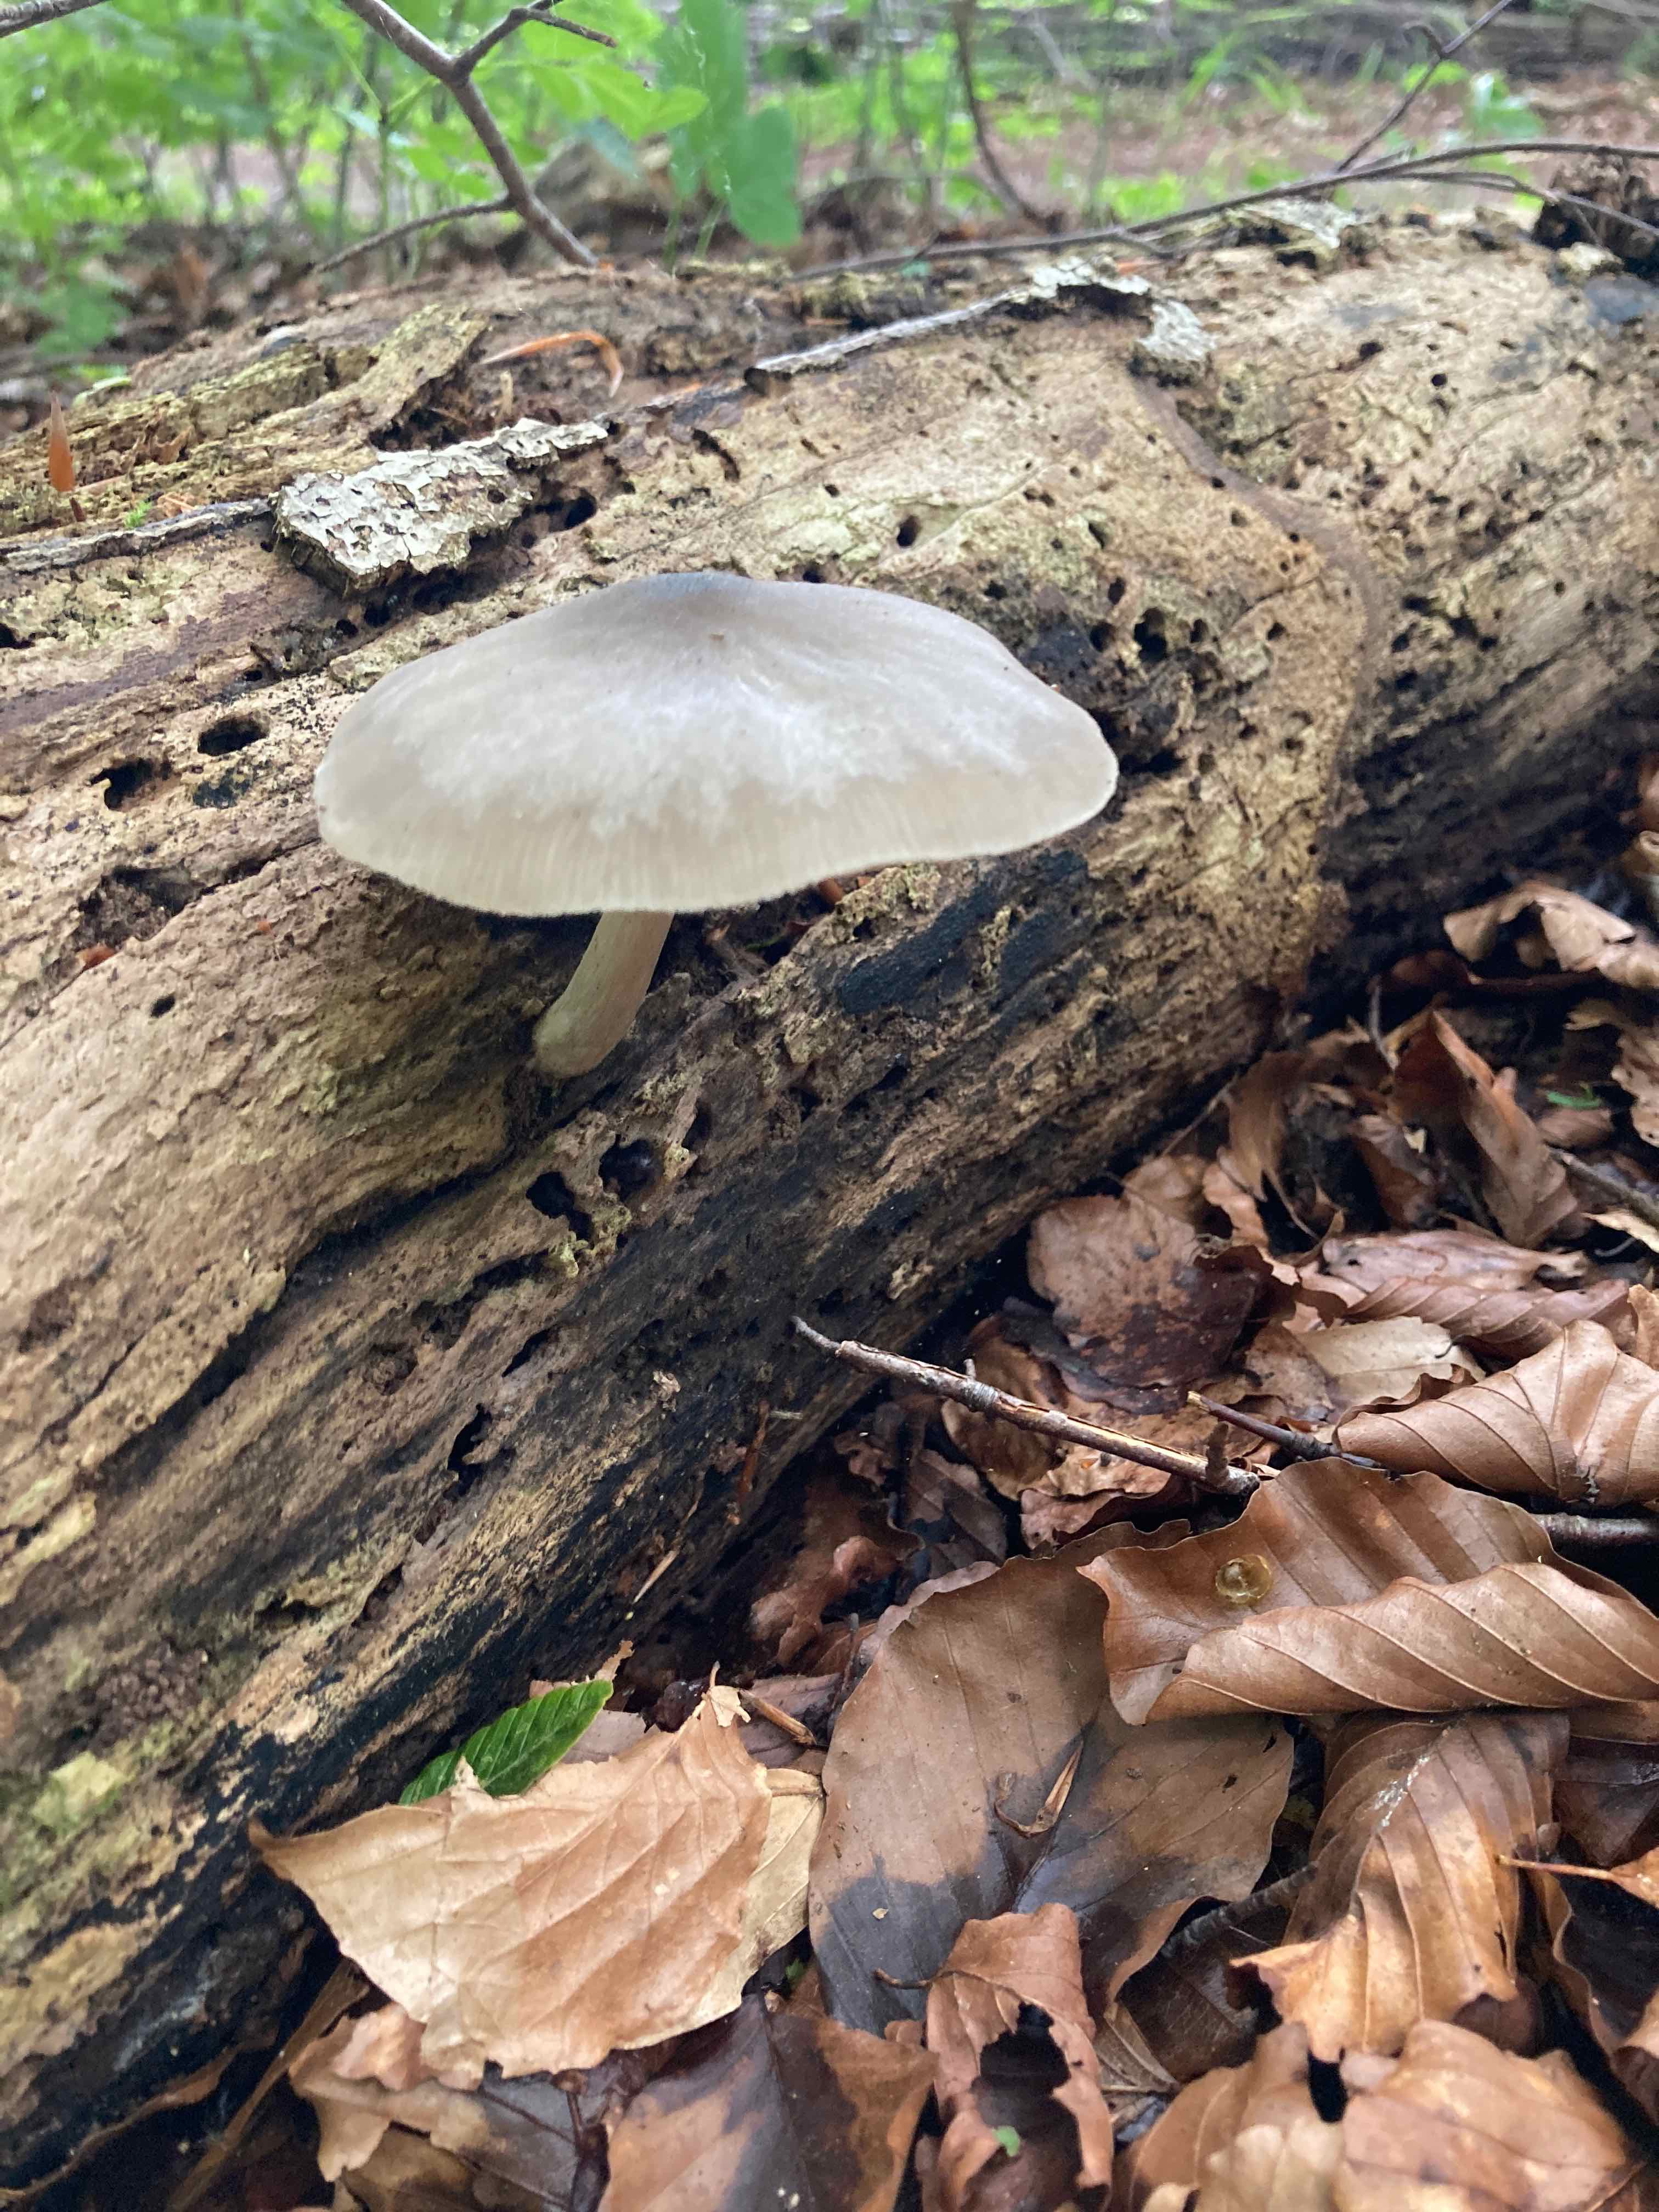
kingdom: Fungi
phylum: Basidiomycota
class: Agaricomycetes
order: Agaricales
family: Pluteaceae
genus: Pluteus
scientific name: Pluteus salicinus
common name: stiv skærmhat
